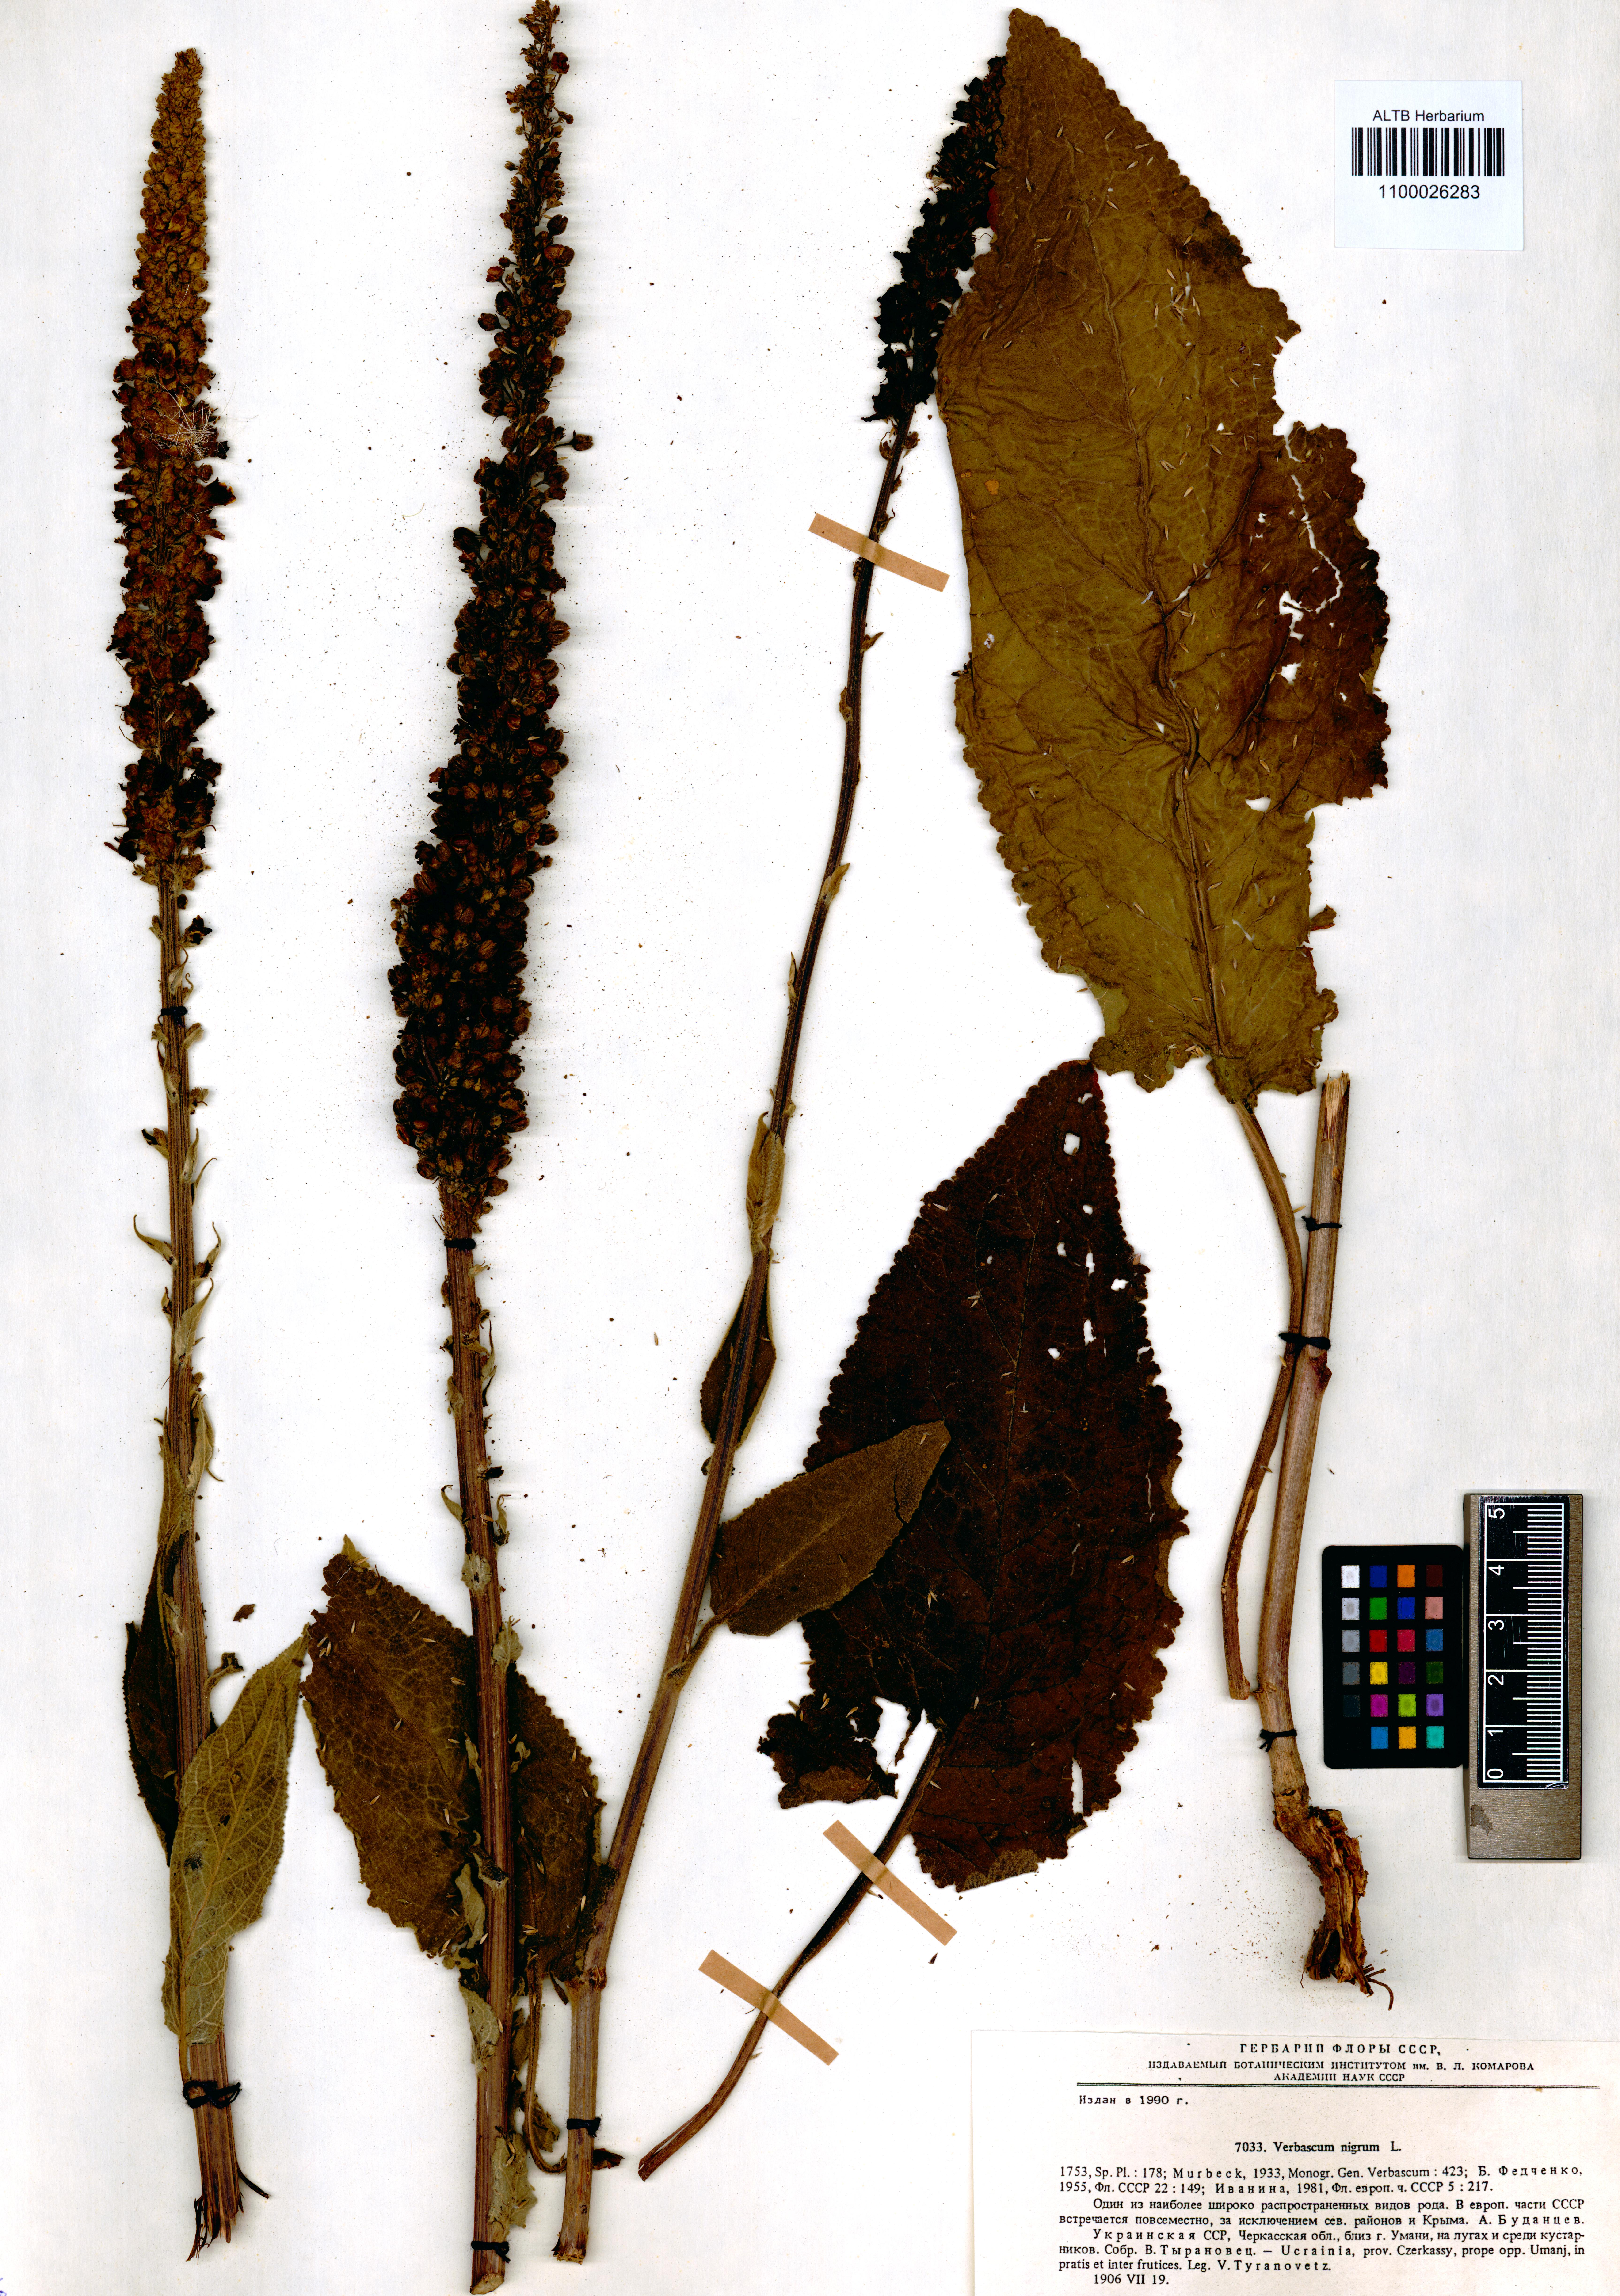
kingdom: Plantae
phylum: Tracheophyta
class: Magnoliopsida
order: Lamiales
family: Scrophulariaceae
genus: Verbascum
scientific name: Verbascum nigrum
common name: Dark mullein
